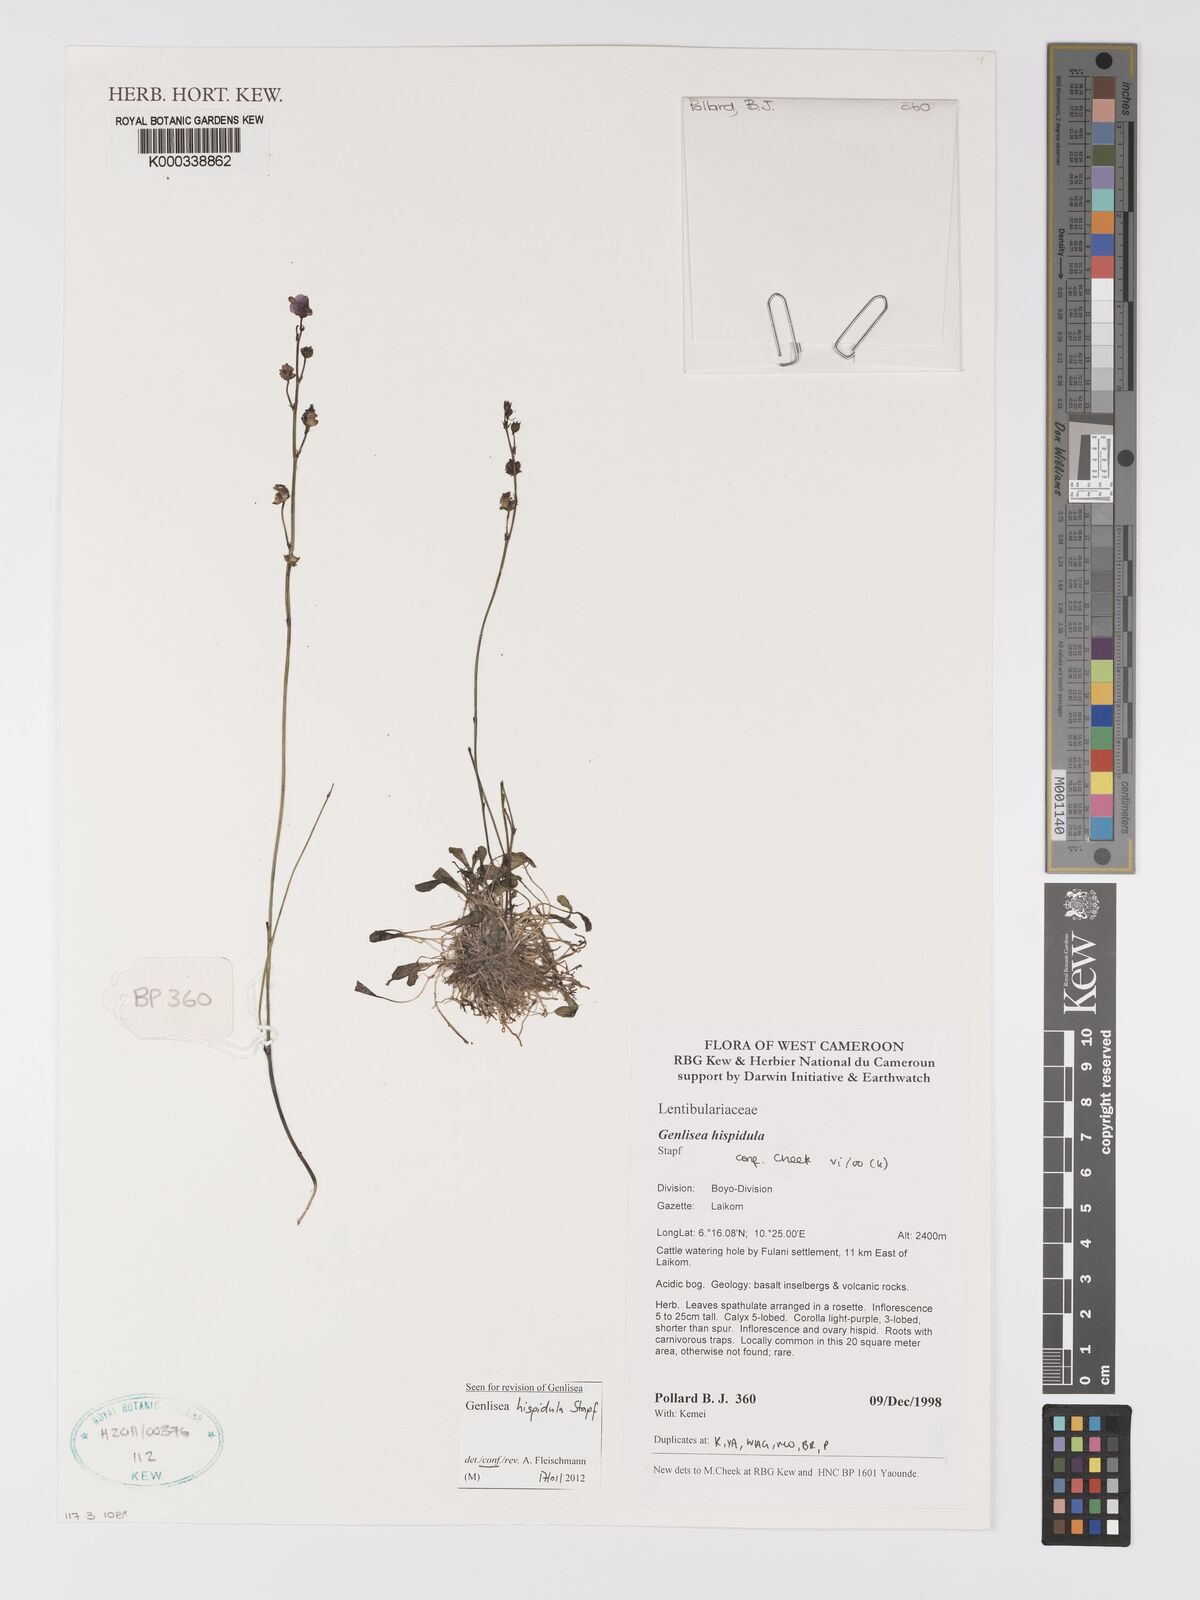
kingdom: Plantae
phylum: Tracheophyta
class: Magnoliopsida
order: Lamiales
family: Lentibulariaceae
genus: Genlisea
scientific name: Genlisea hispidula
